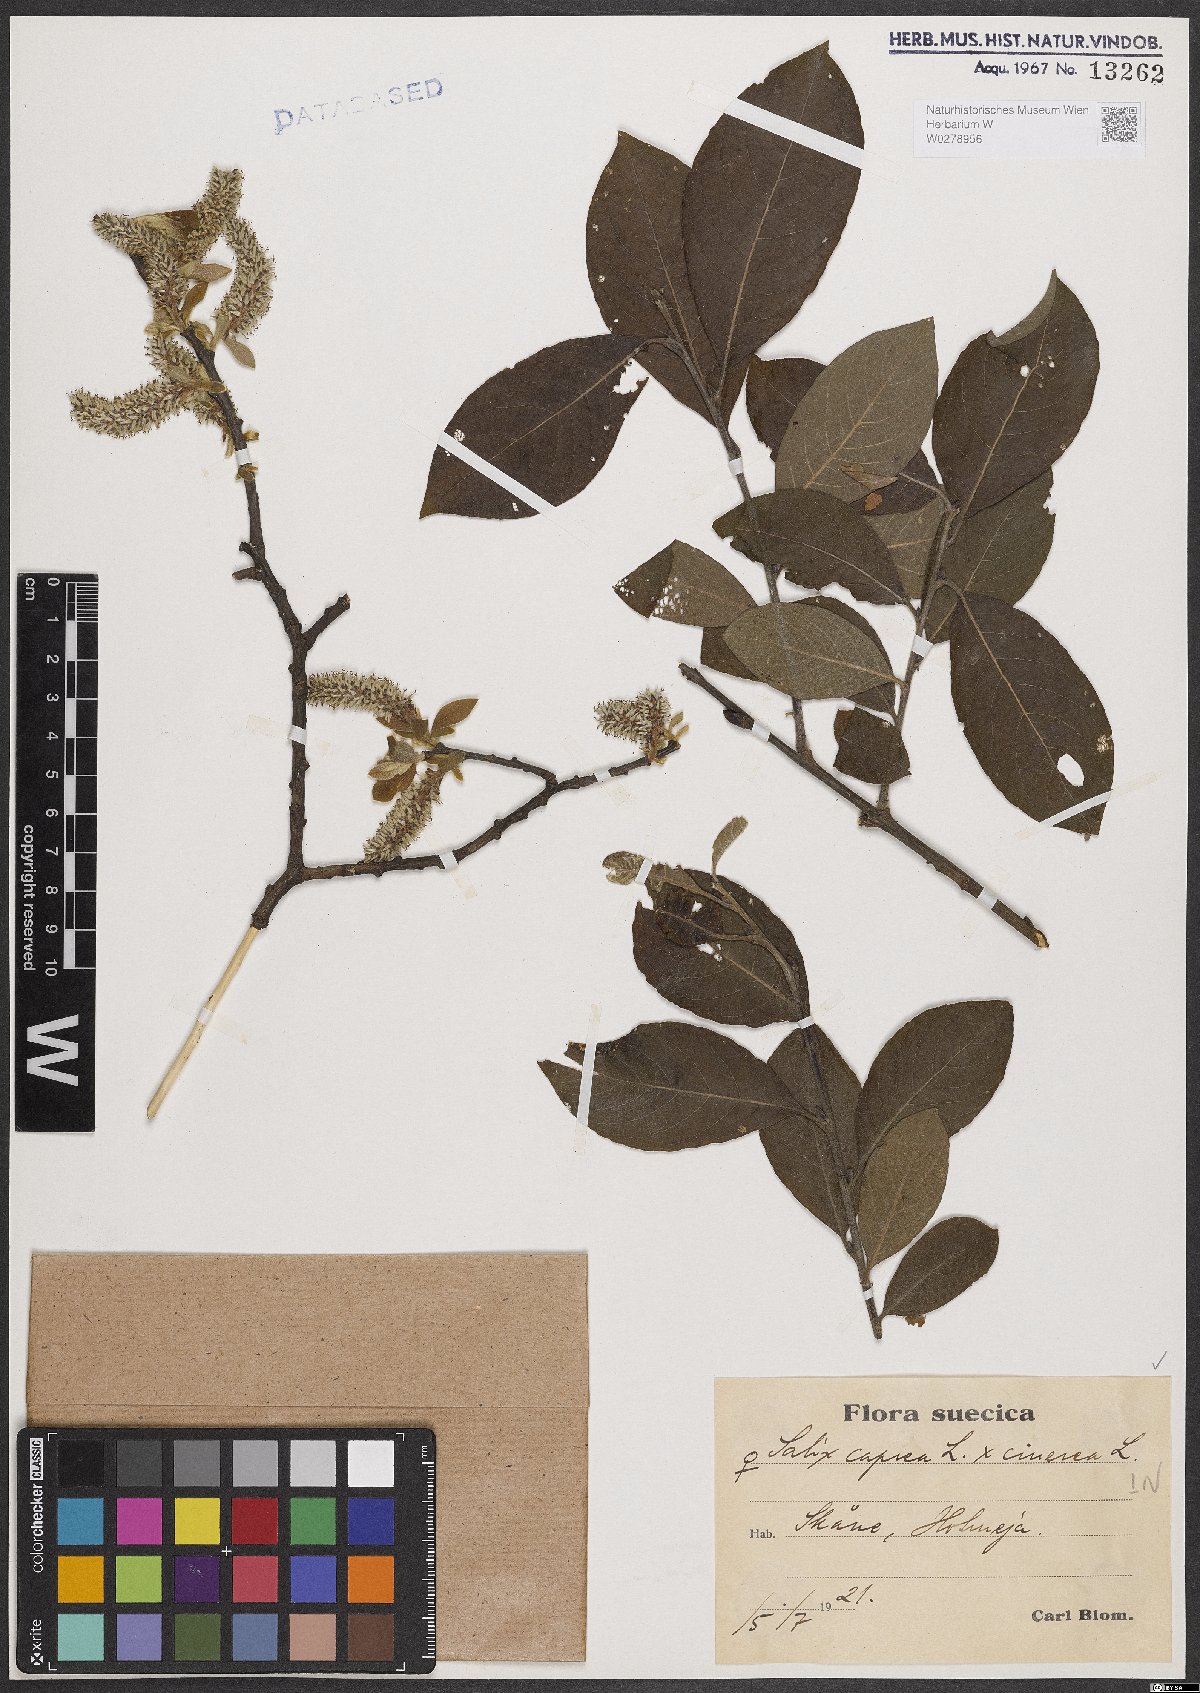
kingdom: Plantae
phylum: Tracheophyta
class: Magnoliopsida
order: Malpighiales
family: Salicaceae
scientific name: Salicaceae
